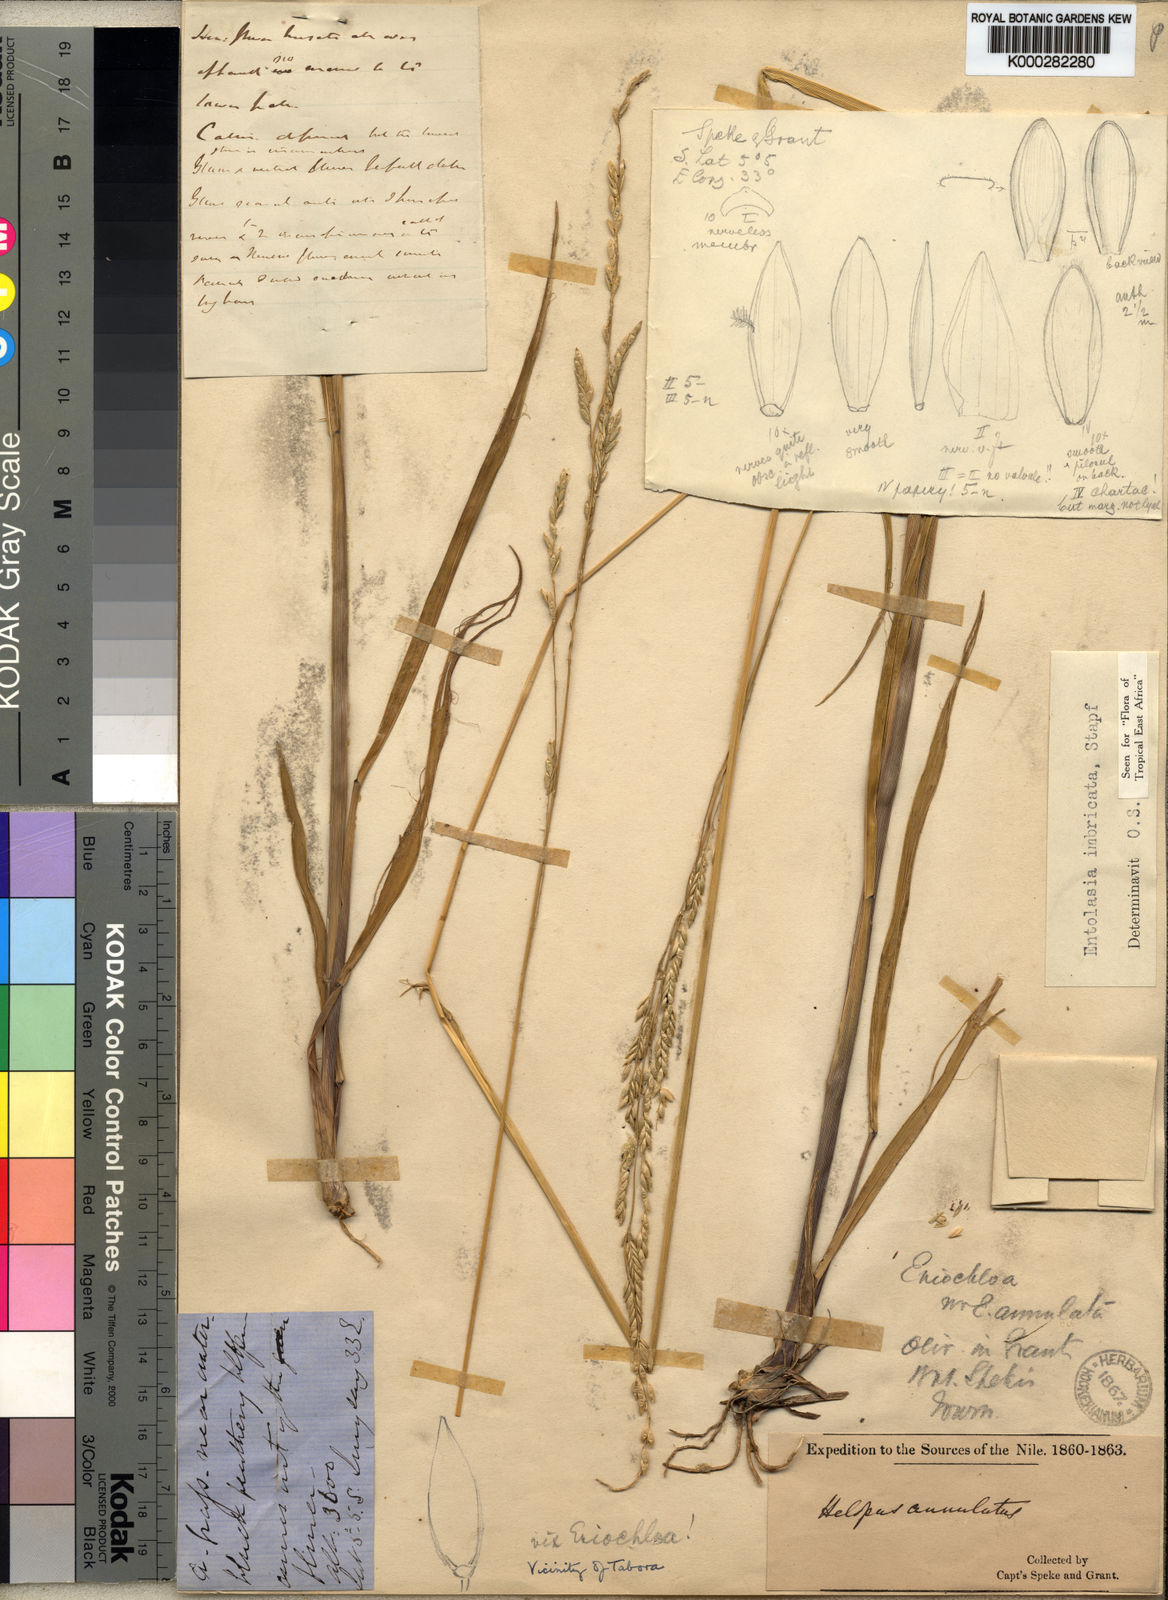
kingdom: Plantae
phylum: Tracheophyta
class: Liliopsida
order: Poales
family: Poaceae
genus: Entolasia
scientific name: Entolasia imbricata
